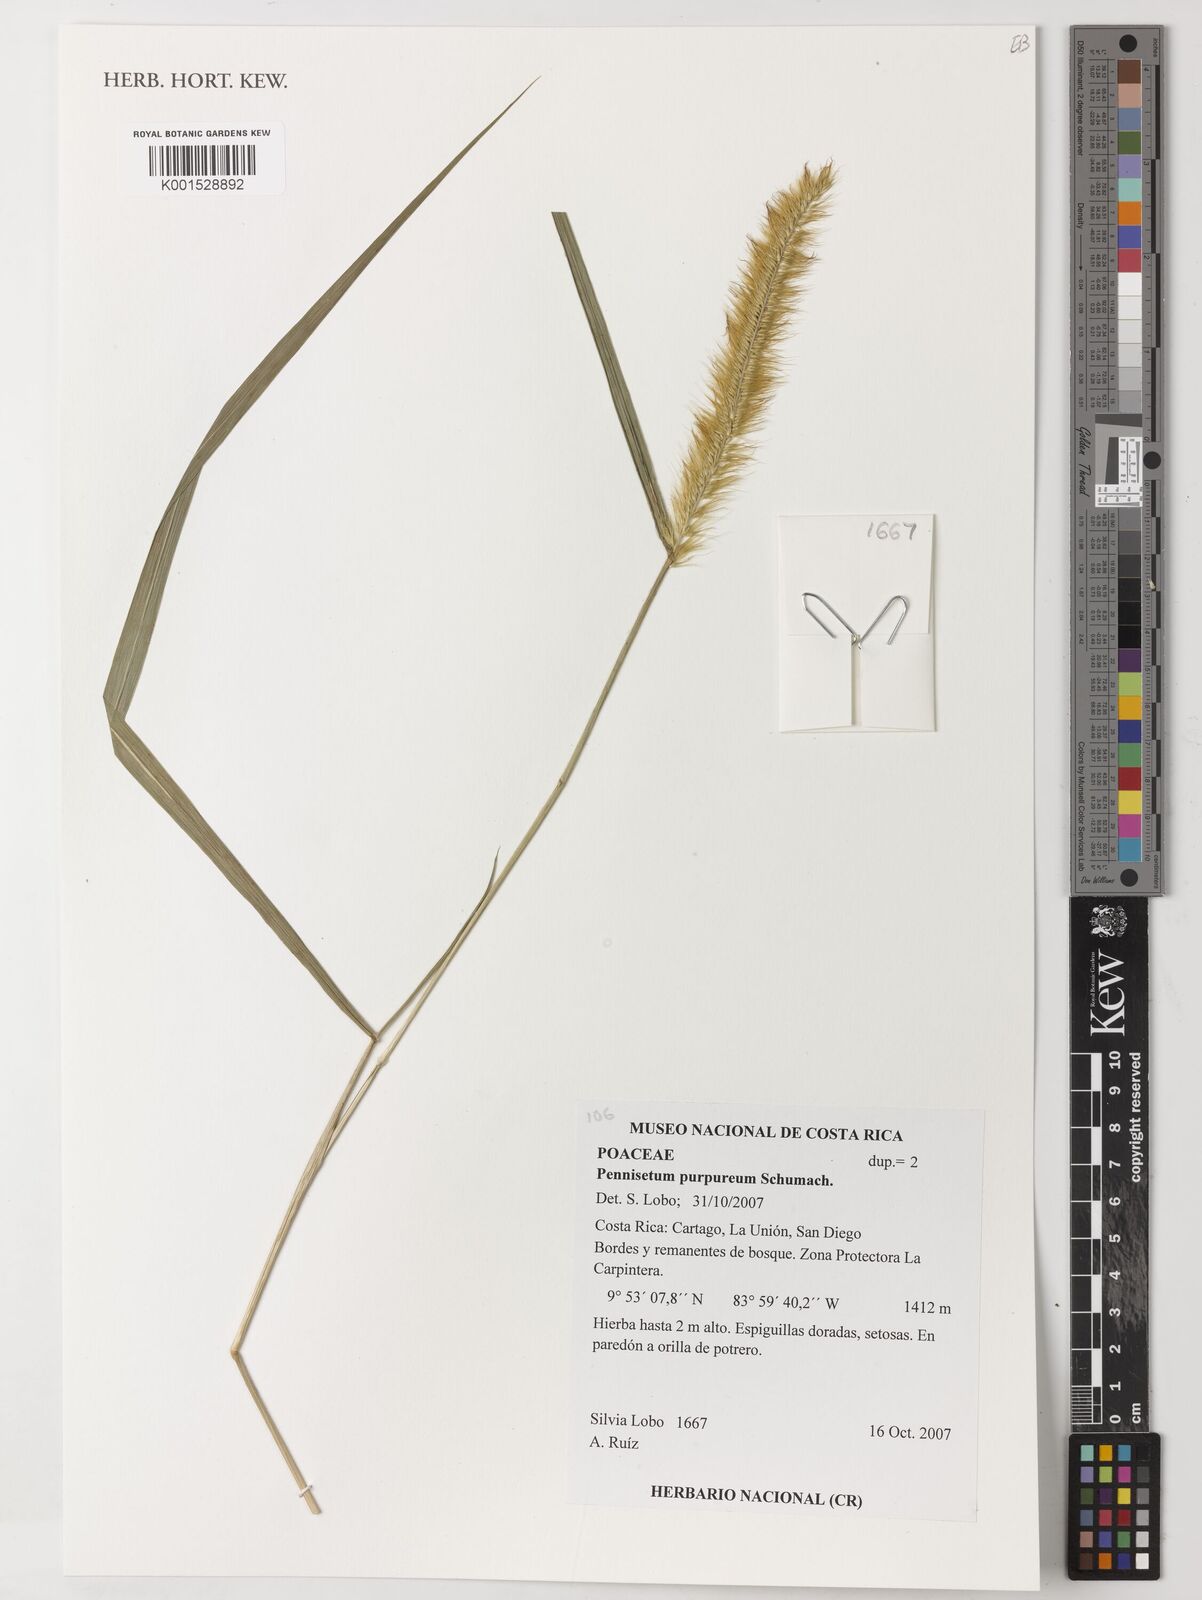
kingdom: Plantae
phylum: Tracheophyta
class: Liliopsida
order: Poales
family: Poaceae
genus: Cenchrus
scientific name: Cenchrus purpureus
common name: Elephant grass
